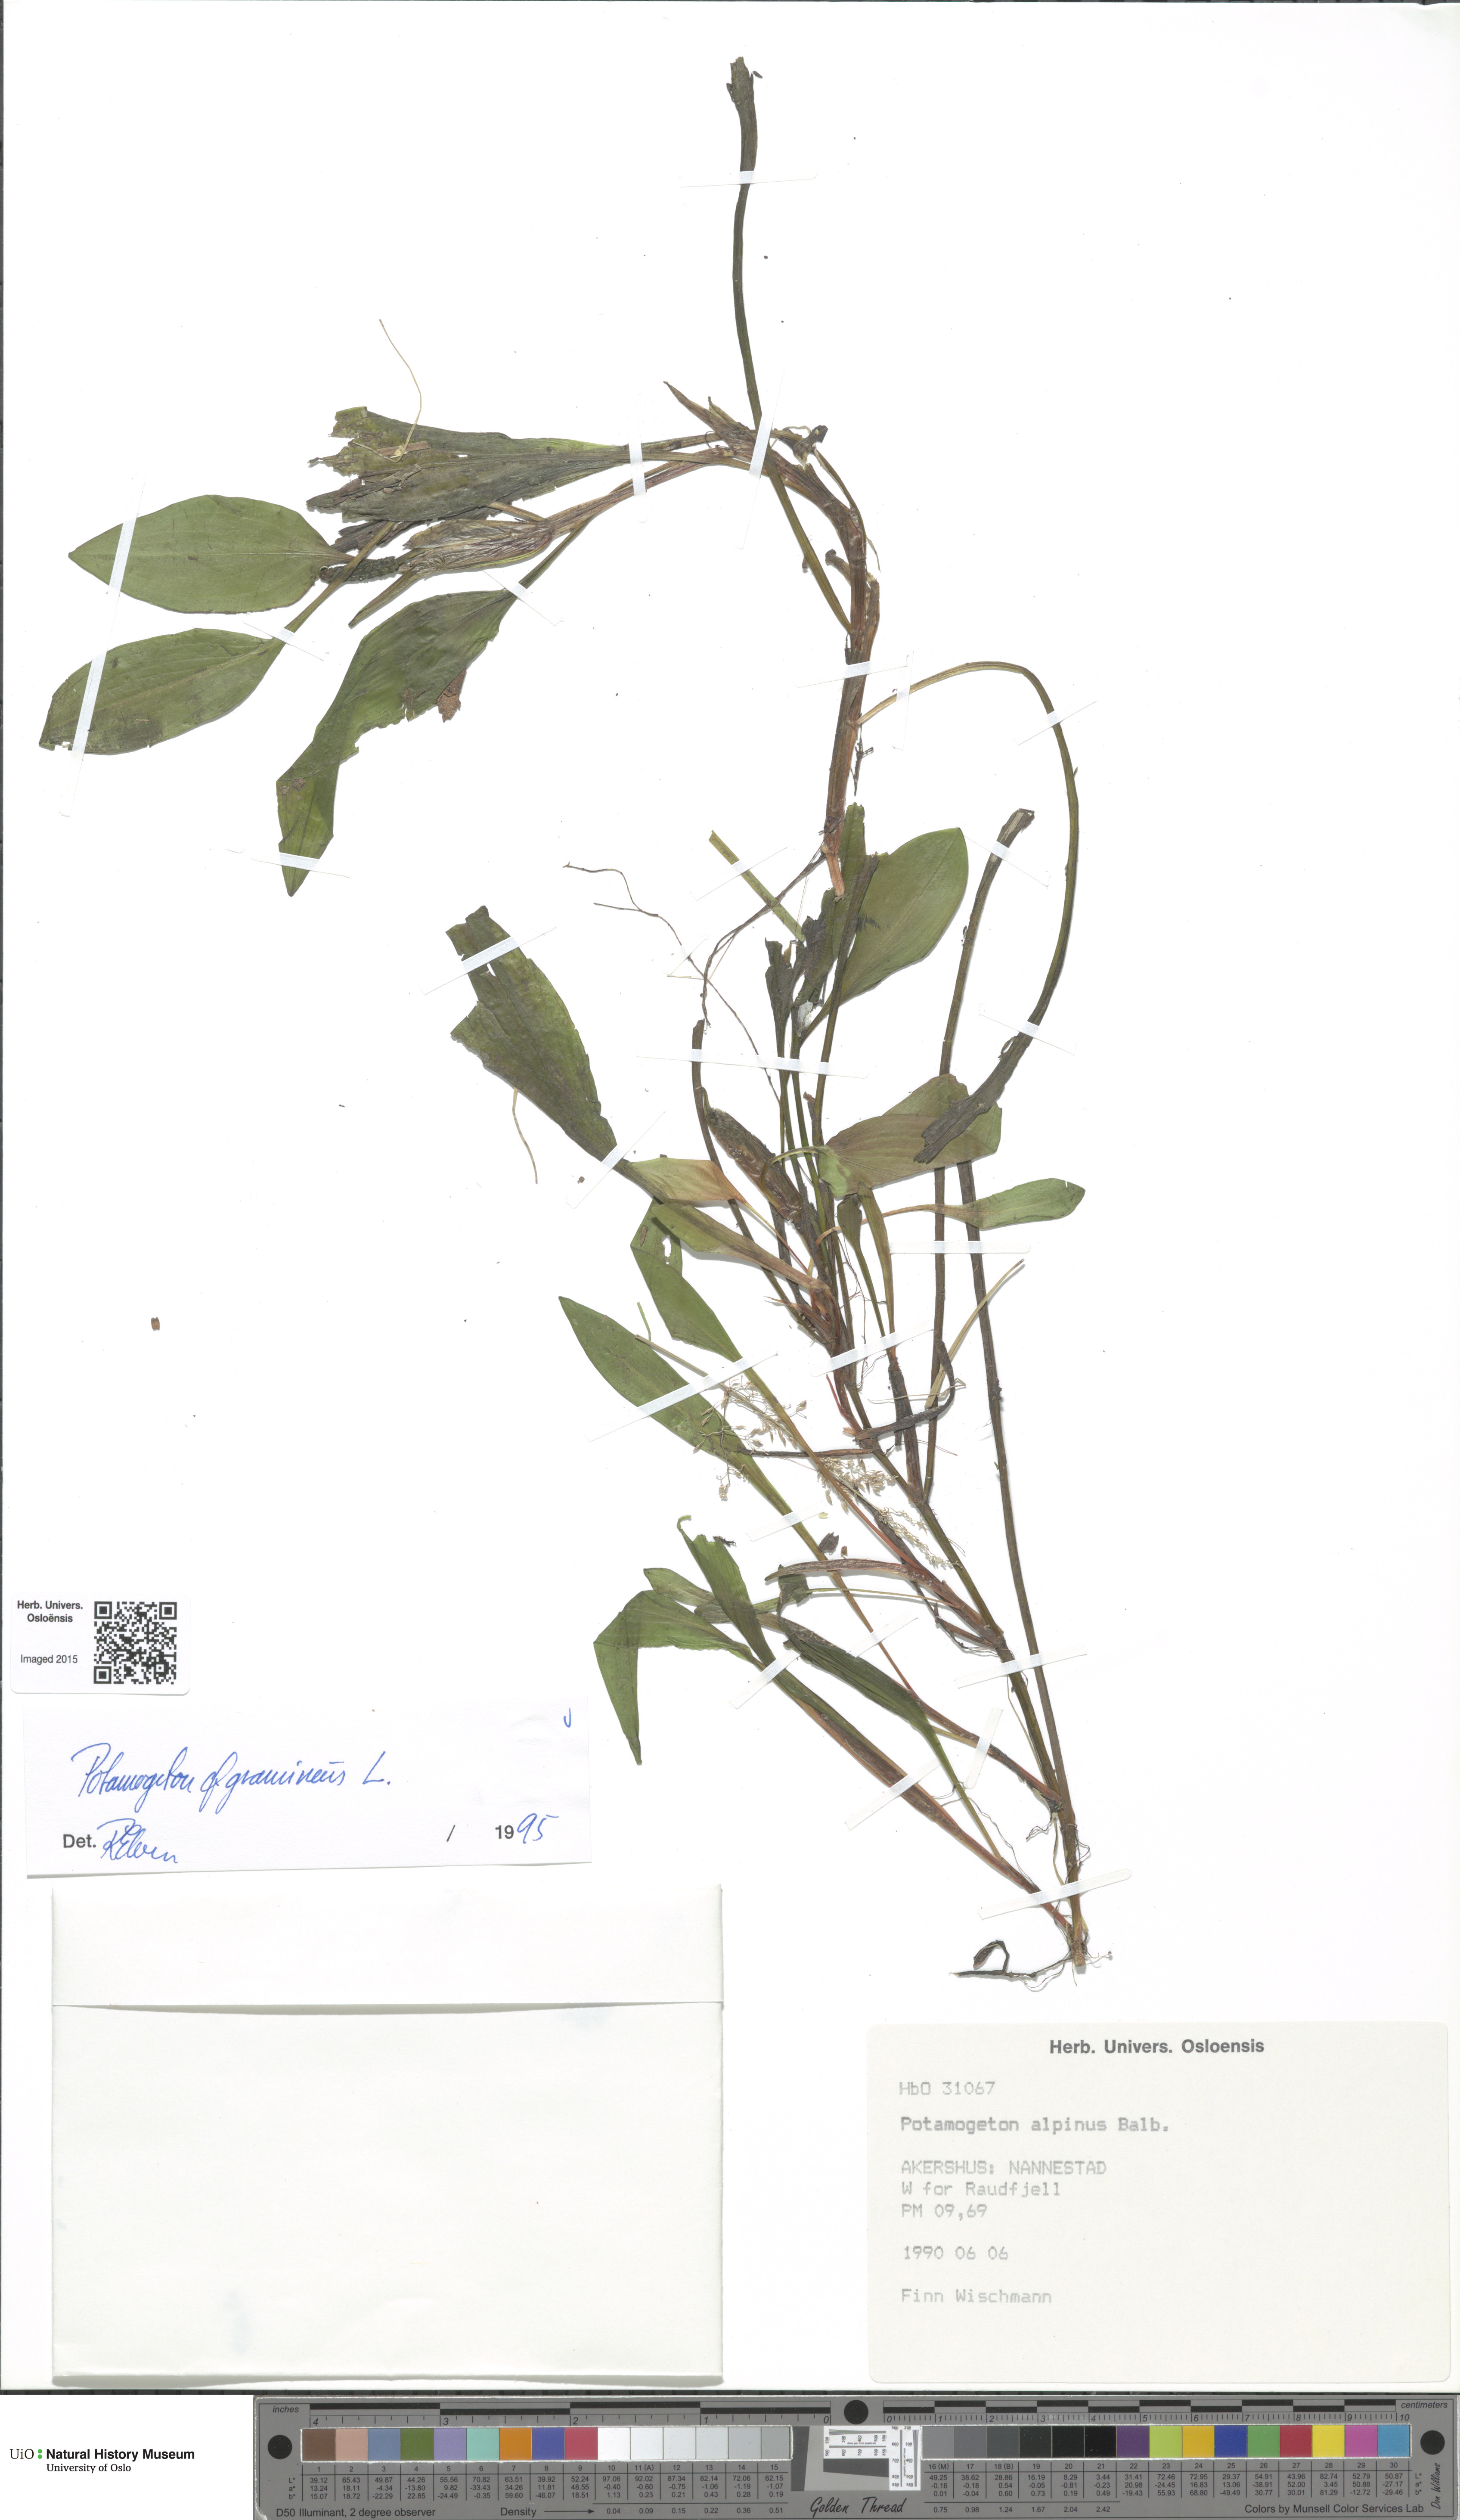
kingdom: Plantae
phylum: Tracheophyta
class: Liliopsida
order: Alismatales
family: Potamogetonaceae
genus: Potamogeton
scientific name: Potamogeton polygonifolius
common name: Bog pondweed
